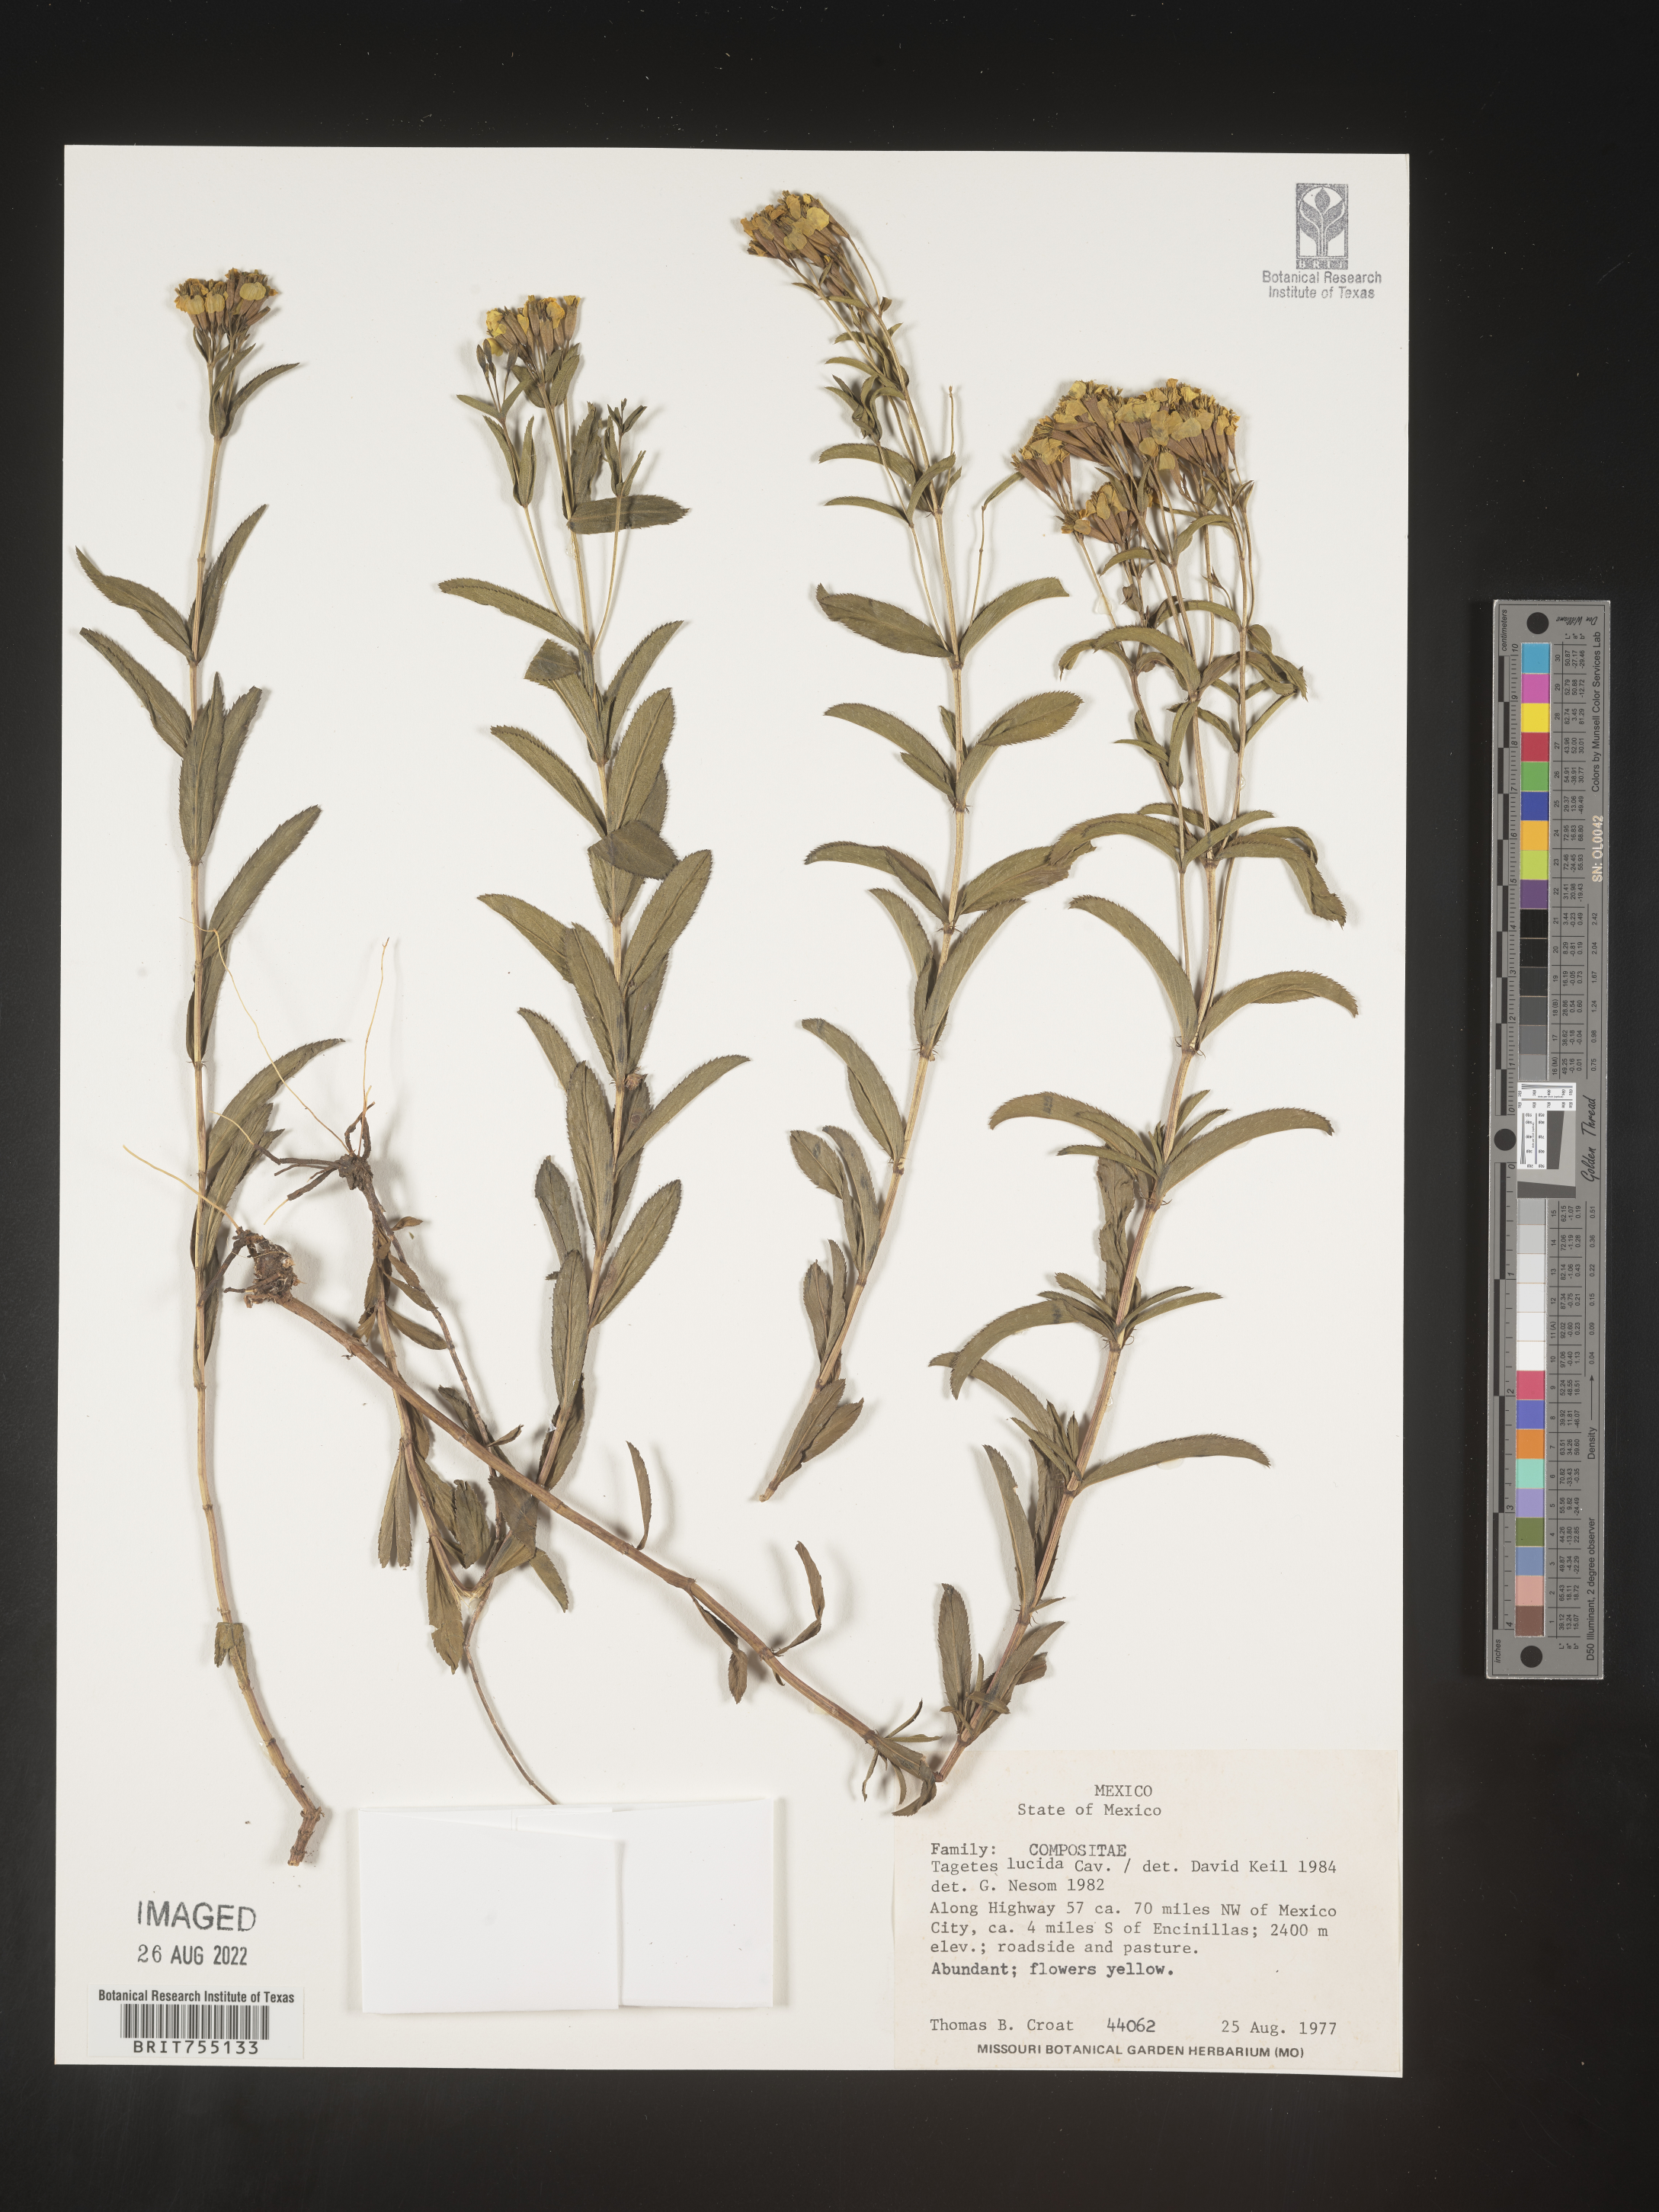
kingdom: Plantae
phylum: Tracheophyta
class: Magnoliopsida
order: Asterales
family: Asteraceae
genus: Tagetes
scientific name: Tagetes
